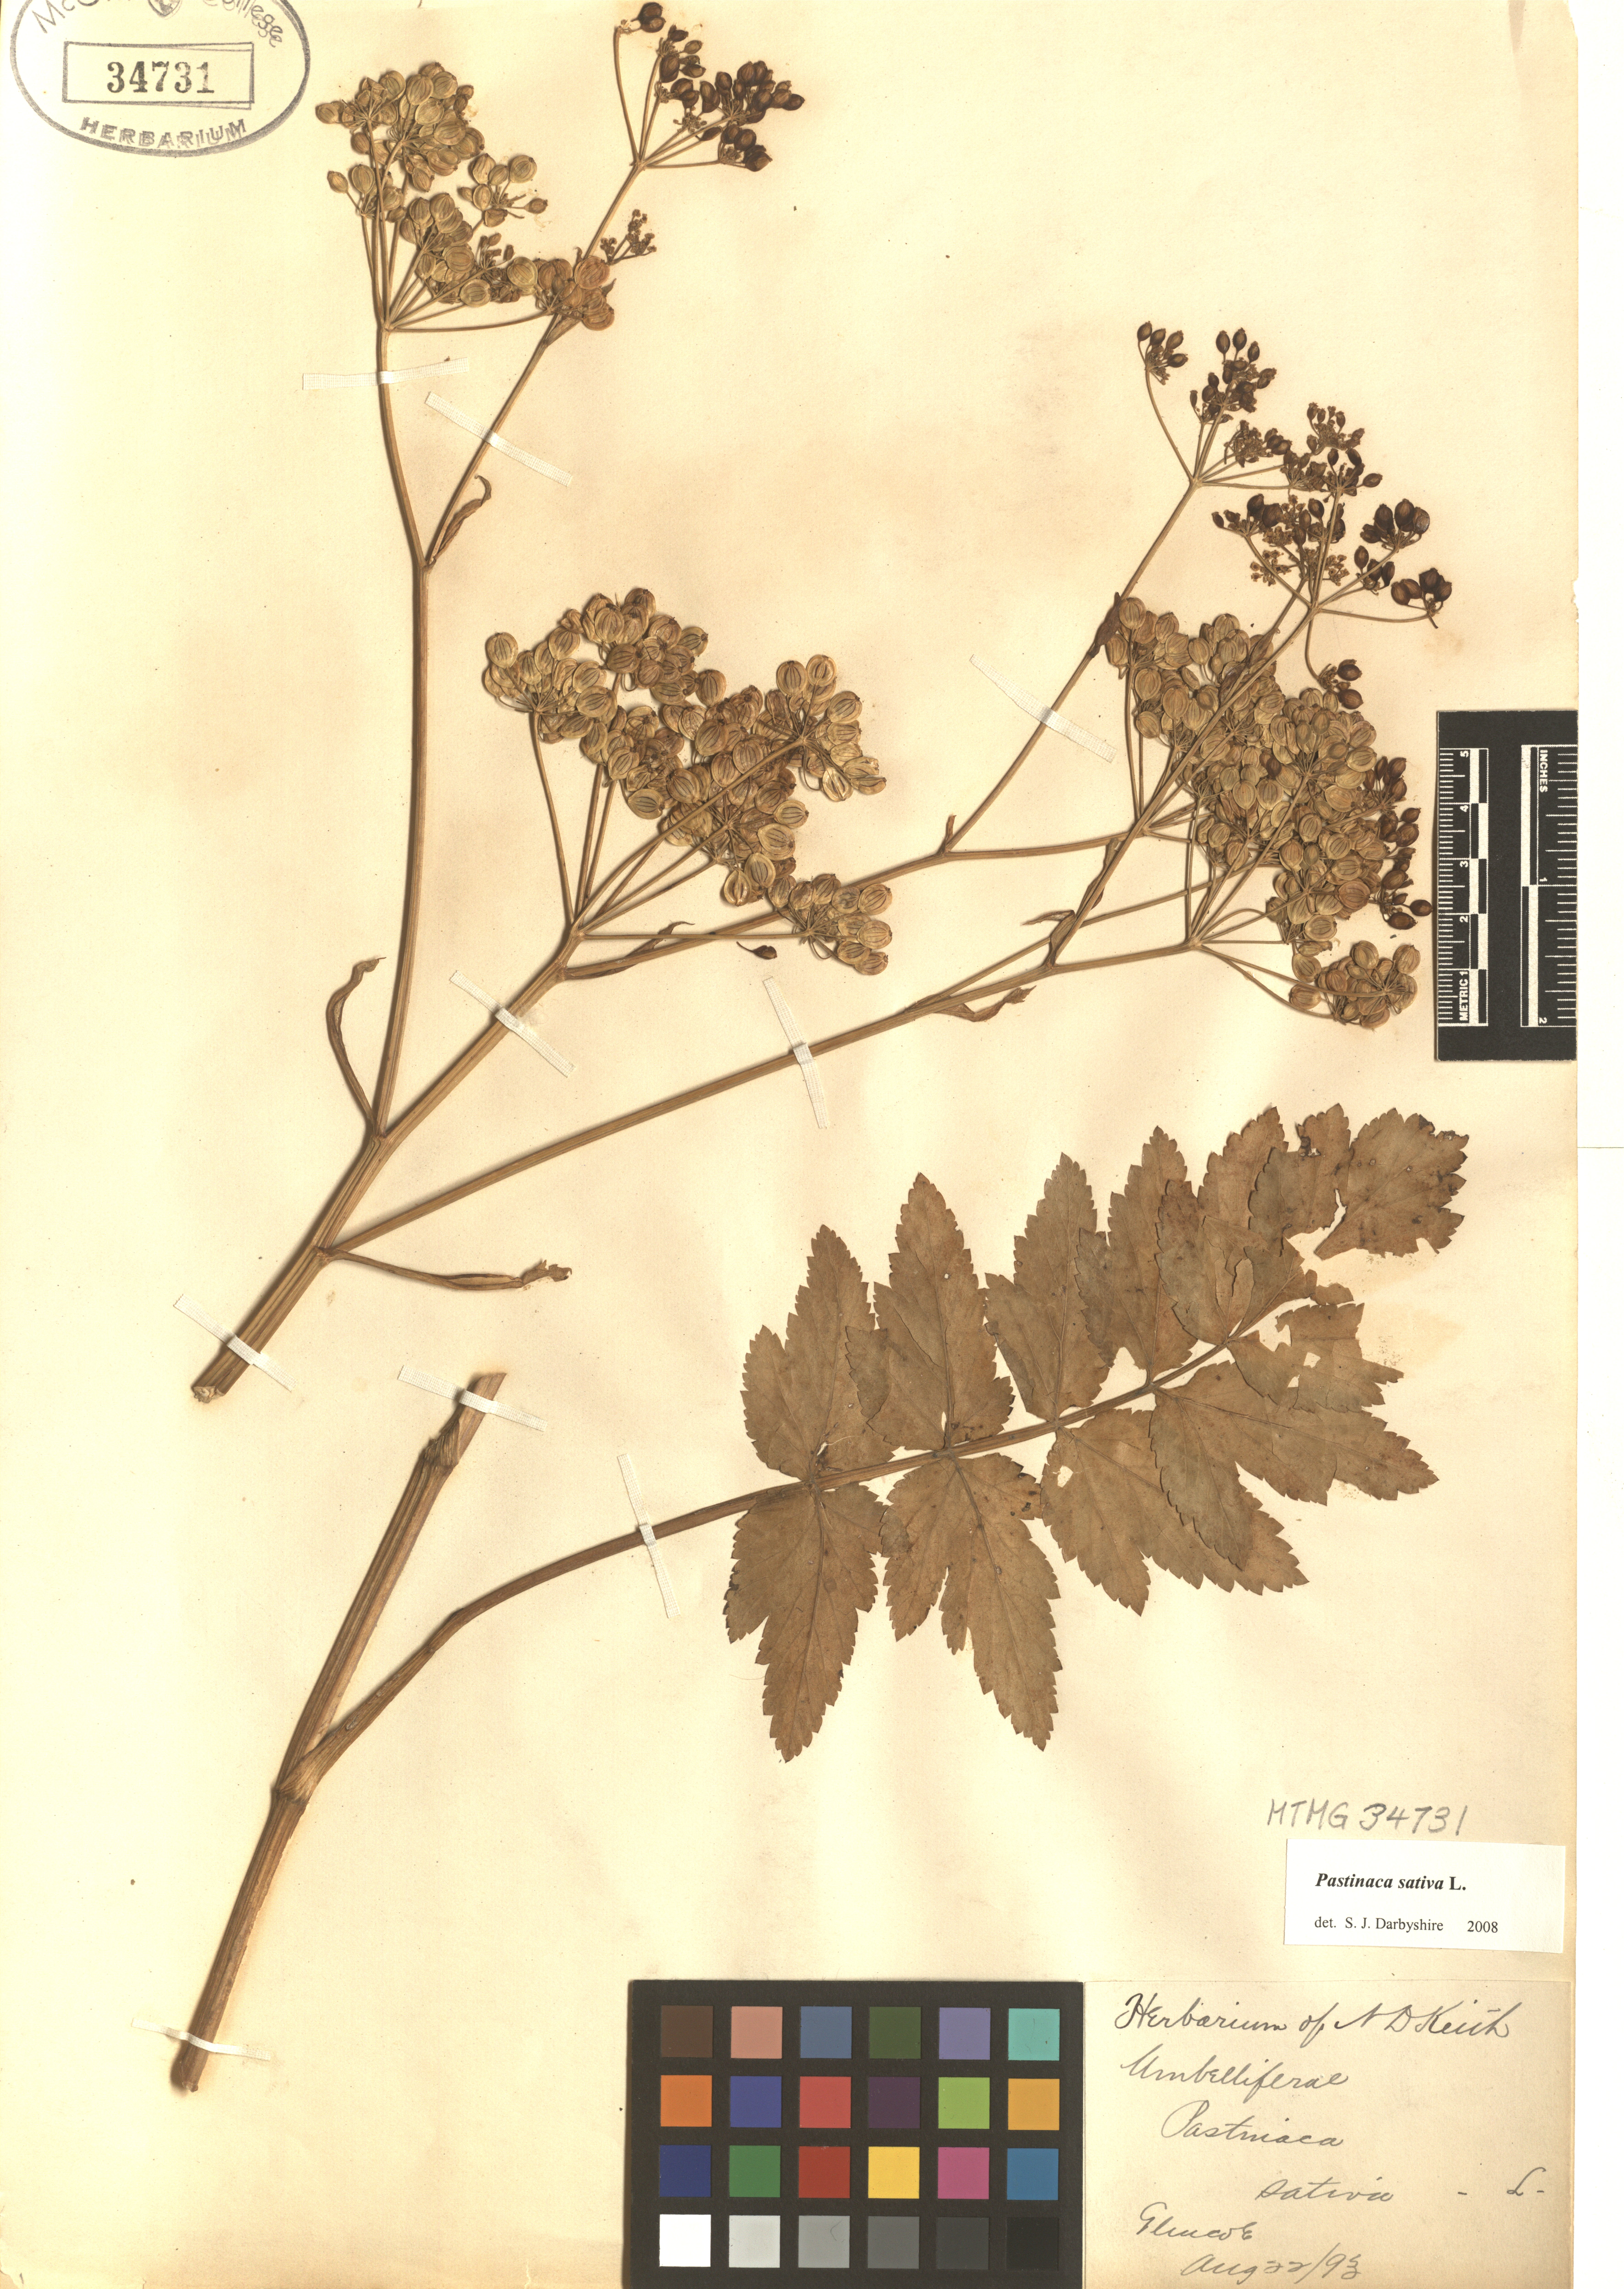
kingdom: Plantae
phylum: Tracheophyta
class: Magnoliopsida
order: Apiales
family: Apiaceae
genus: Pastinaca
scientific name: Pastinaca sativa
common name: Wild parsnip
